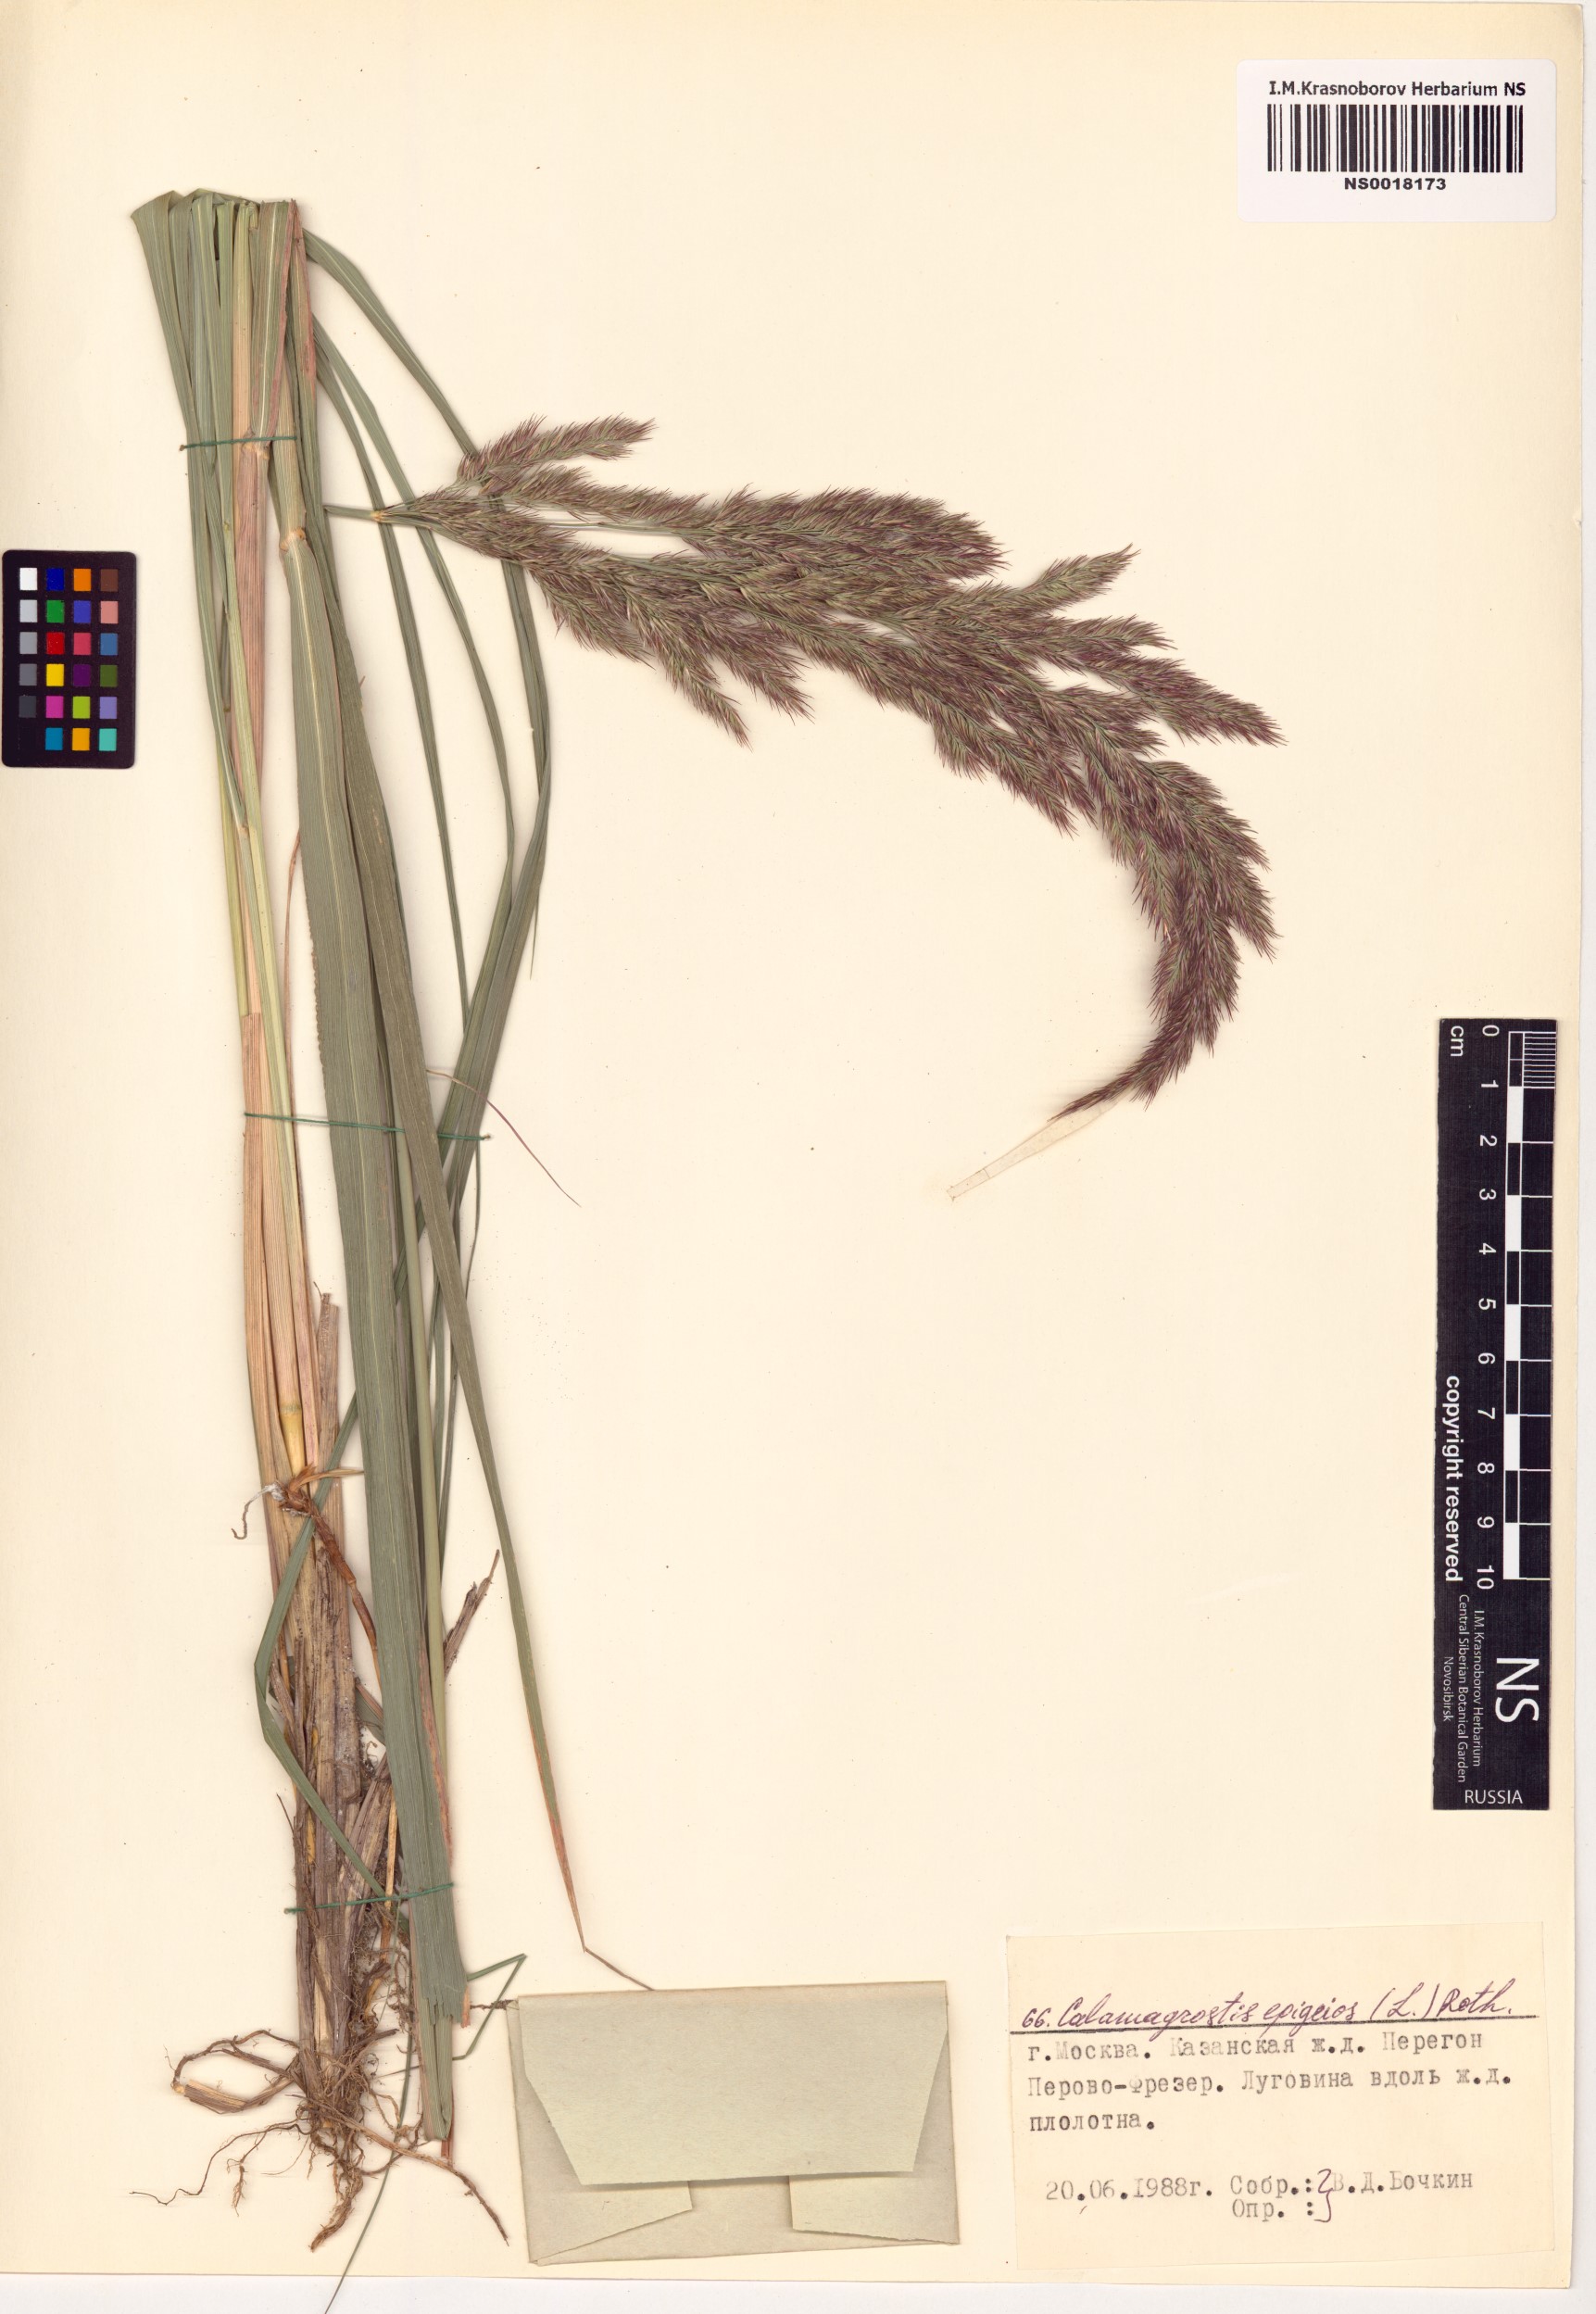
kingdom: Plantae
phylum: Tracheophyta
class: Liliopsida
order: Poales
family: Poaceae
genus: Calamagrostis
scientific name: Calamagrostis epigejos
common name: Wood small-reed
